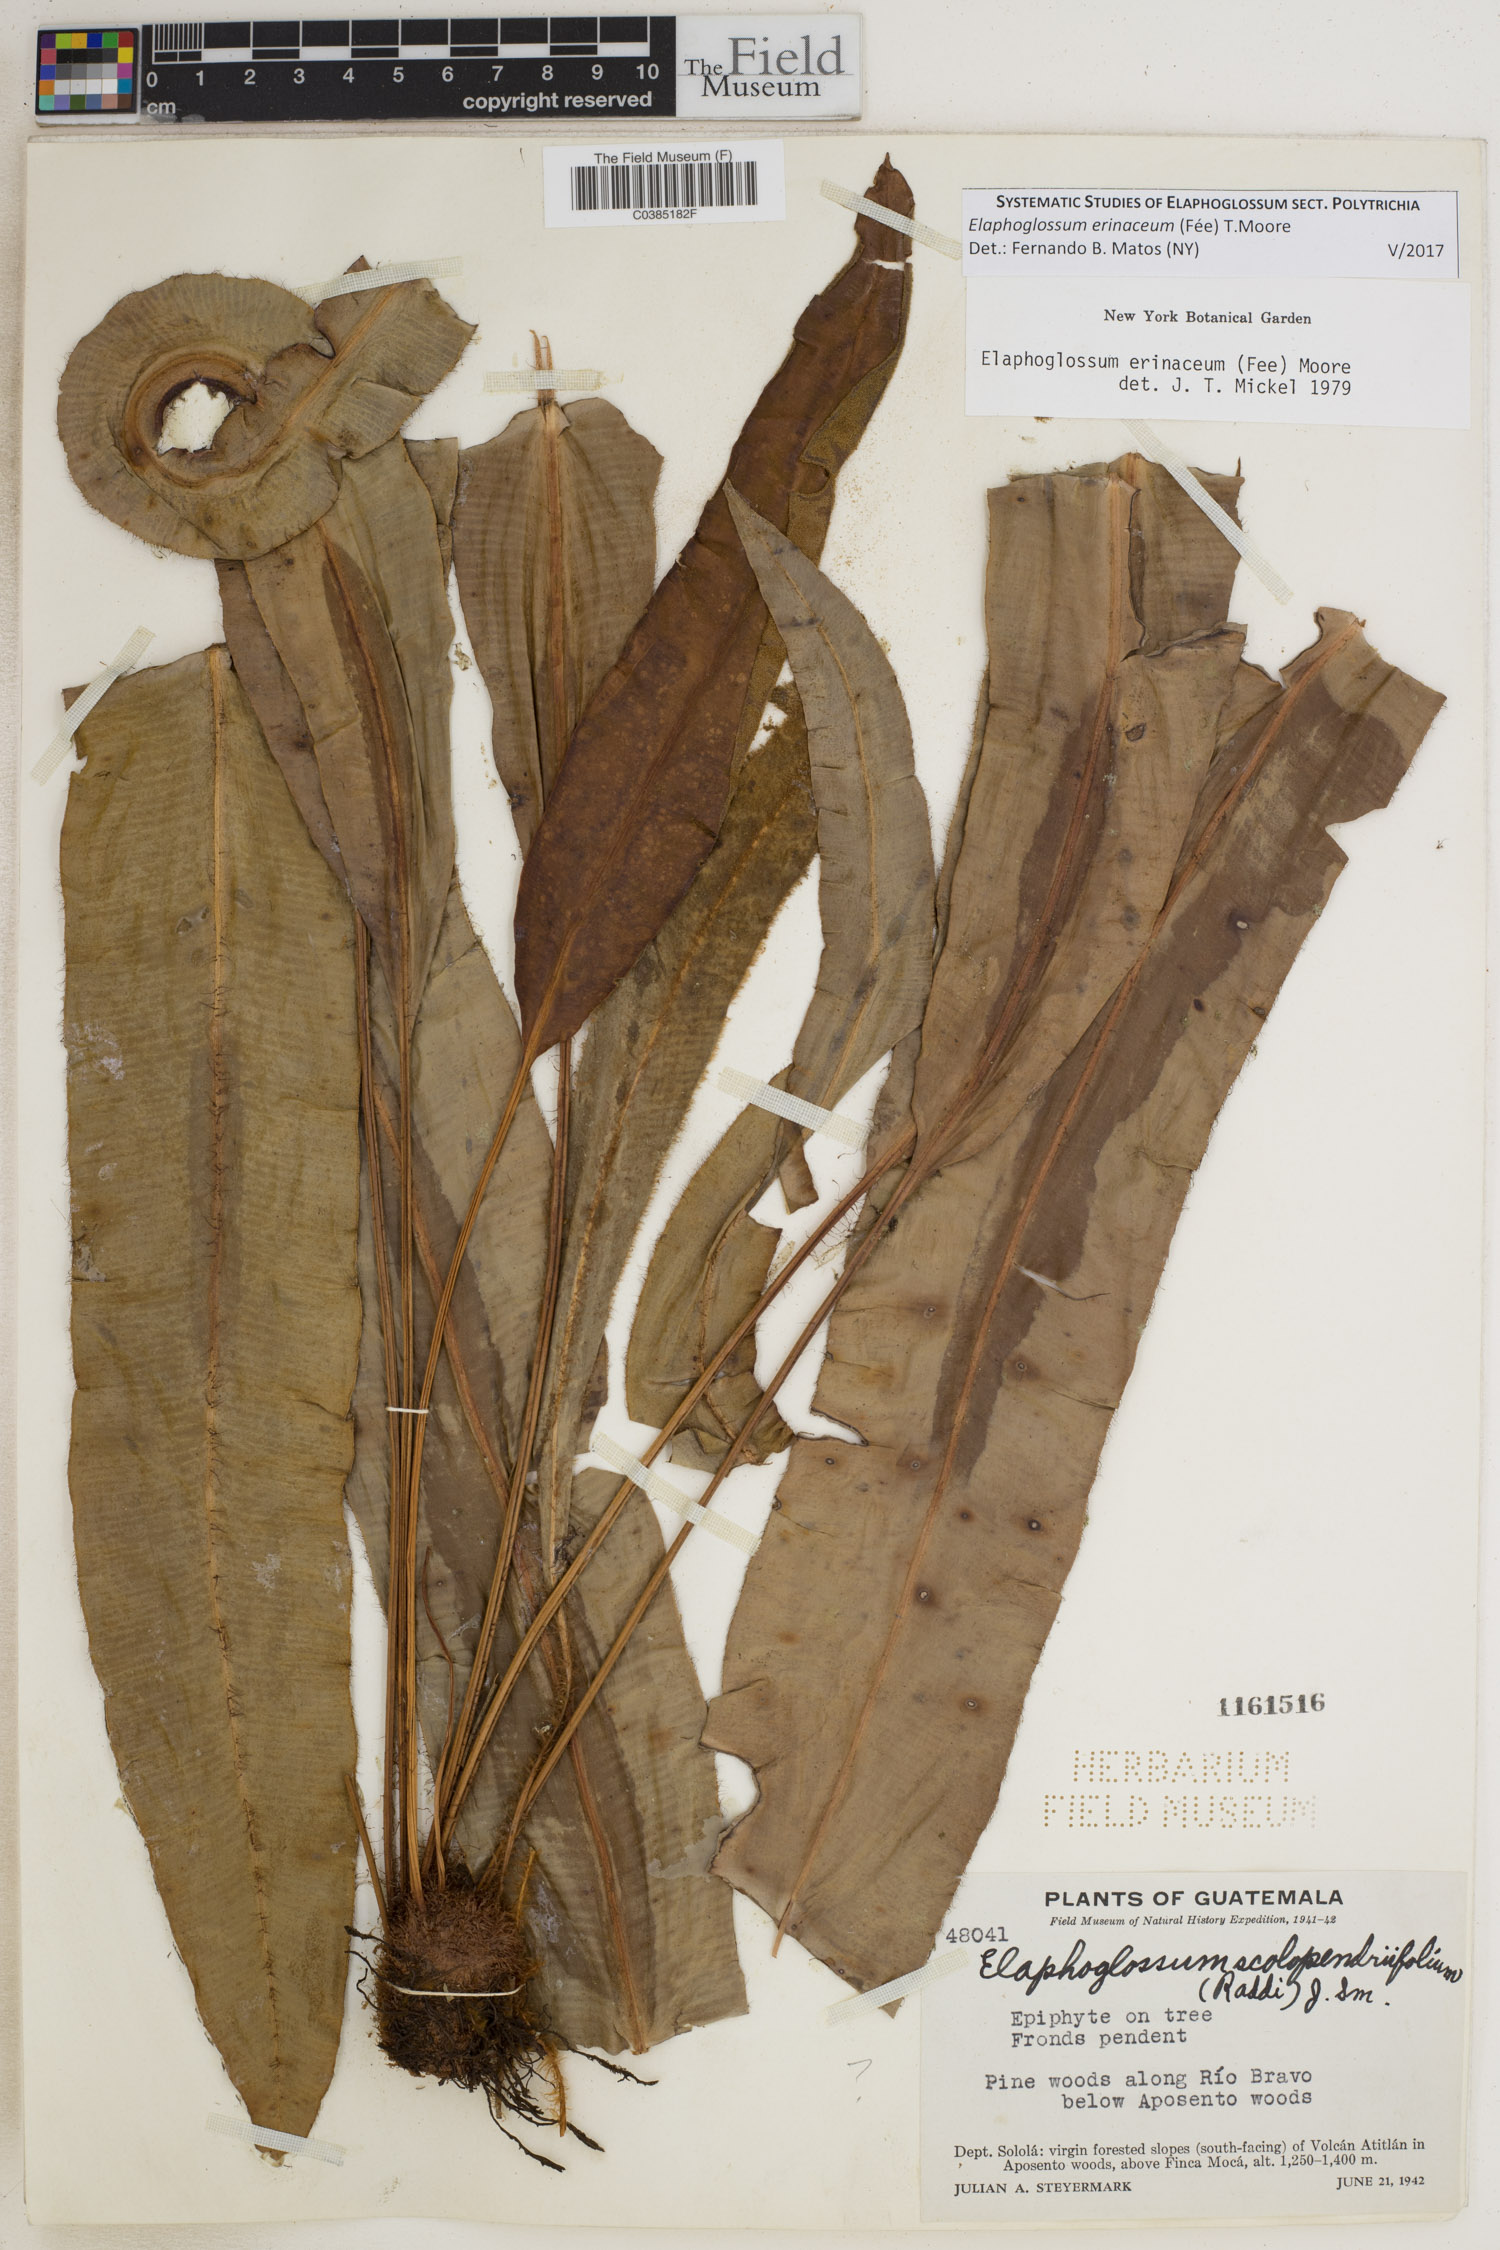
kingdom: Plantae
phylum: Tracheophyta
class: Polypodiopsida
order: Polypodiales
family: Dryopteridaceae
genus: Elaphoglossum
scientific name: Elaphoglossum erinaceum
